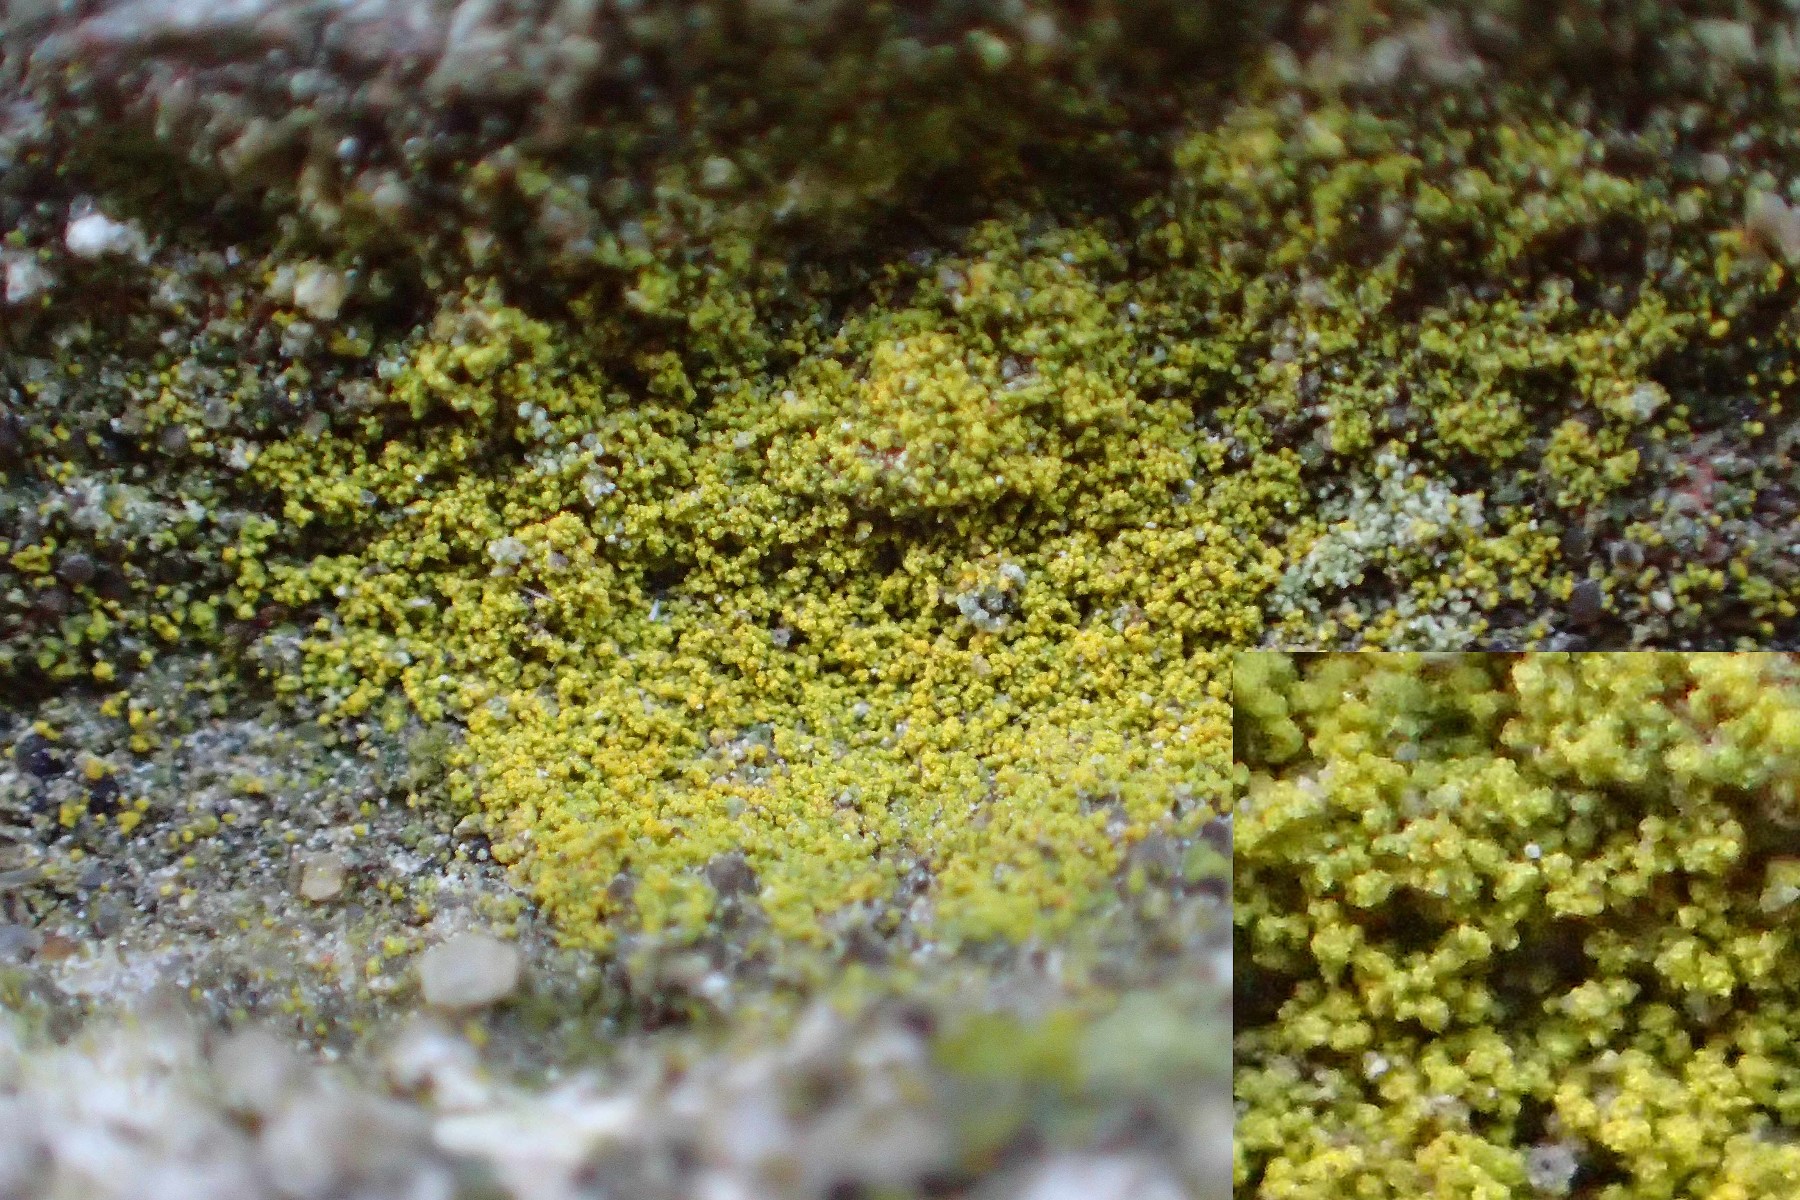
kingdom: Fungi
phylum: Ascomycota
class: Candelariomycetes
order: Candelariales
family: Candelariaceae
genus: Candelariella
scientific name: Candelariella vitellina
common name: almindelig æggeblommelav
